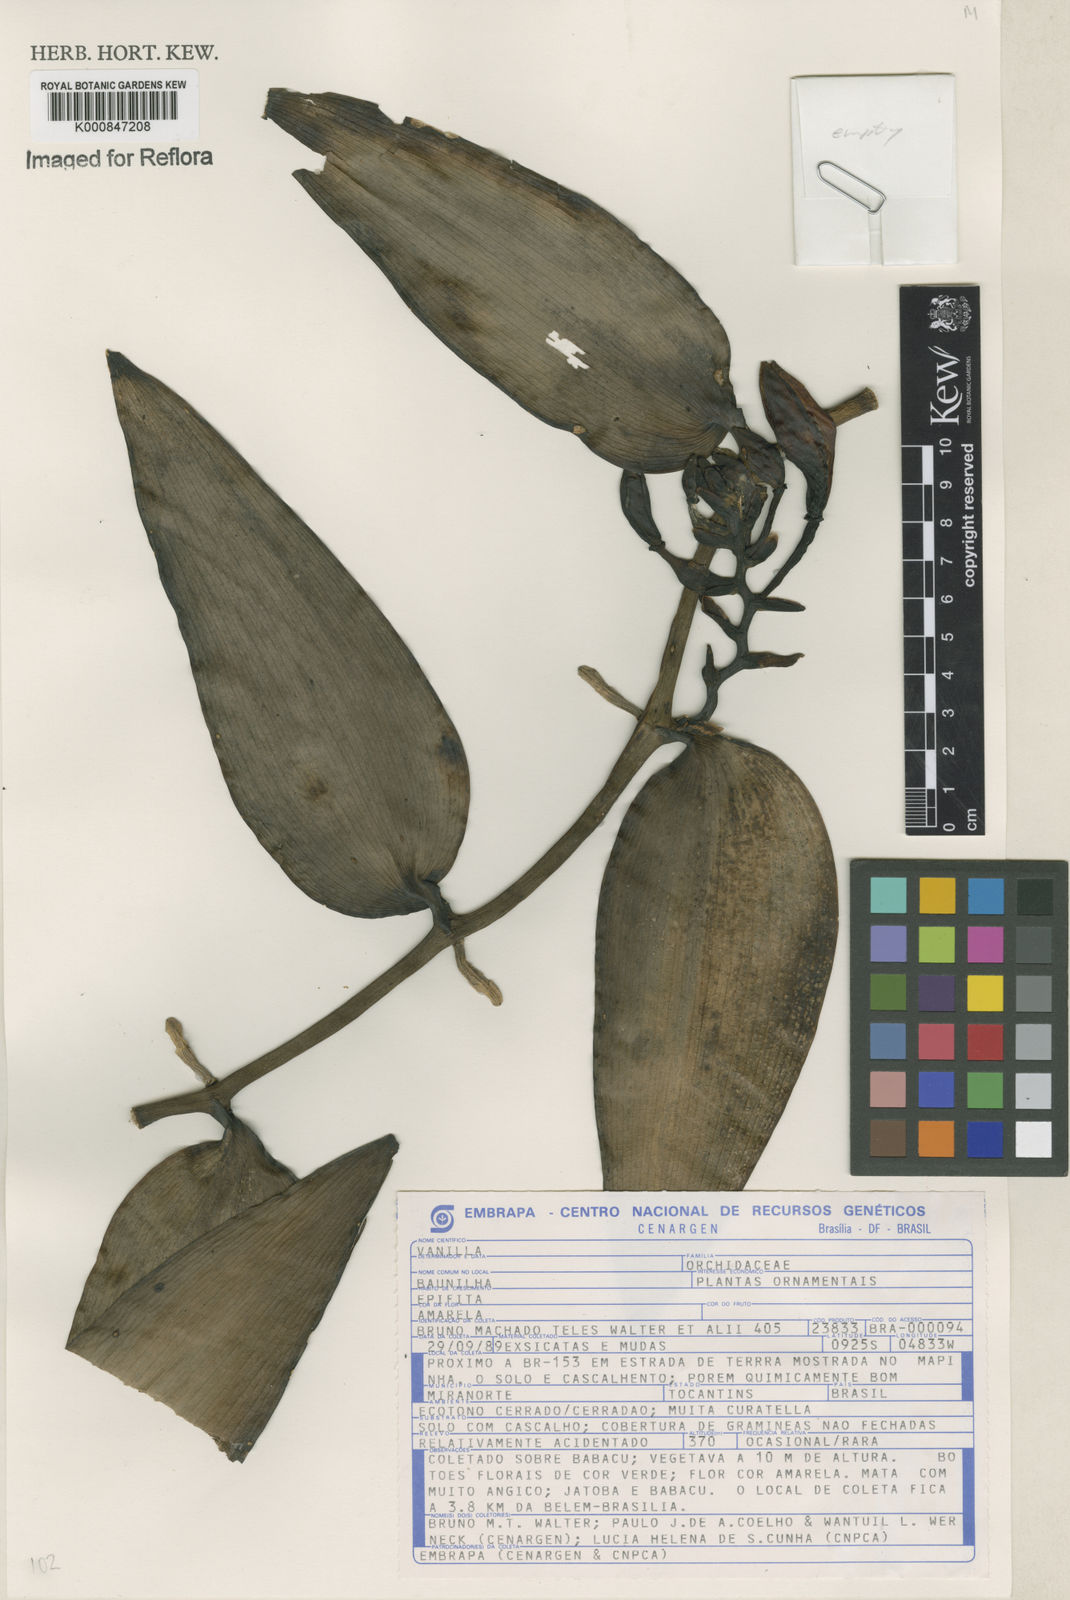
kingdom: Plantae
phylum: Tracheophyta
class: Liliopsida
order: Asparagales
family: Orchidaceae
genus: Vanilla
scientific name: Vanilla palmarum
